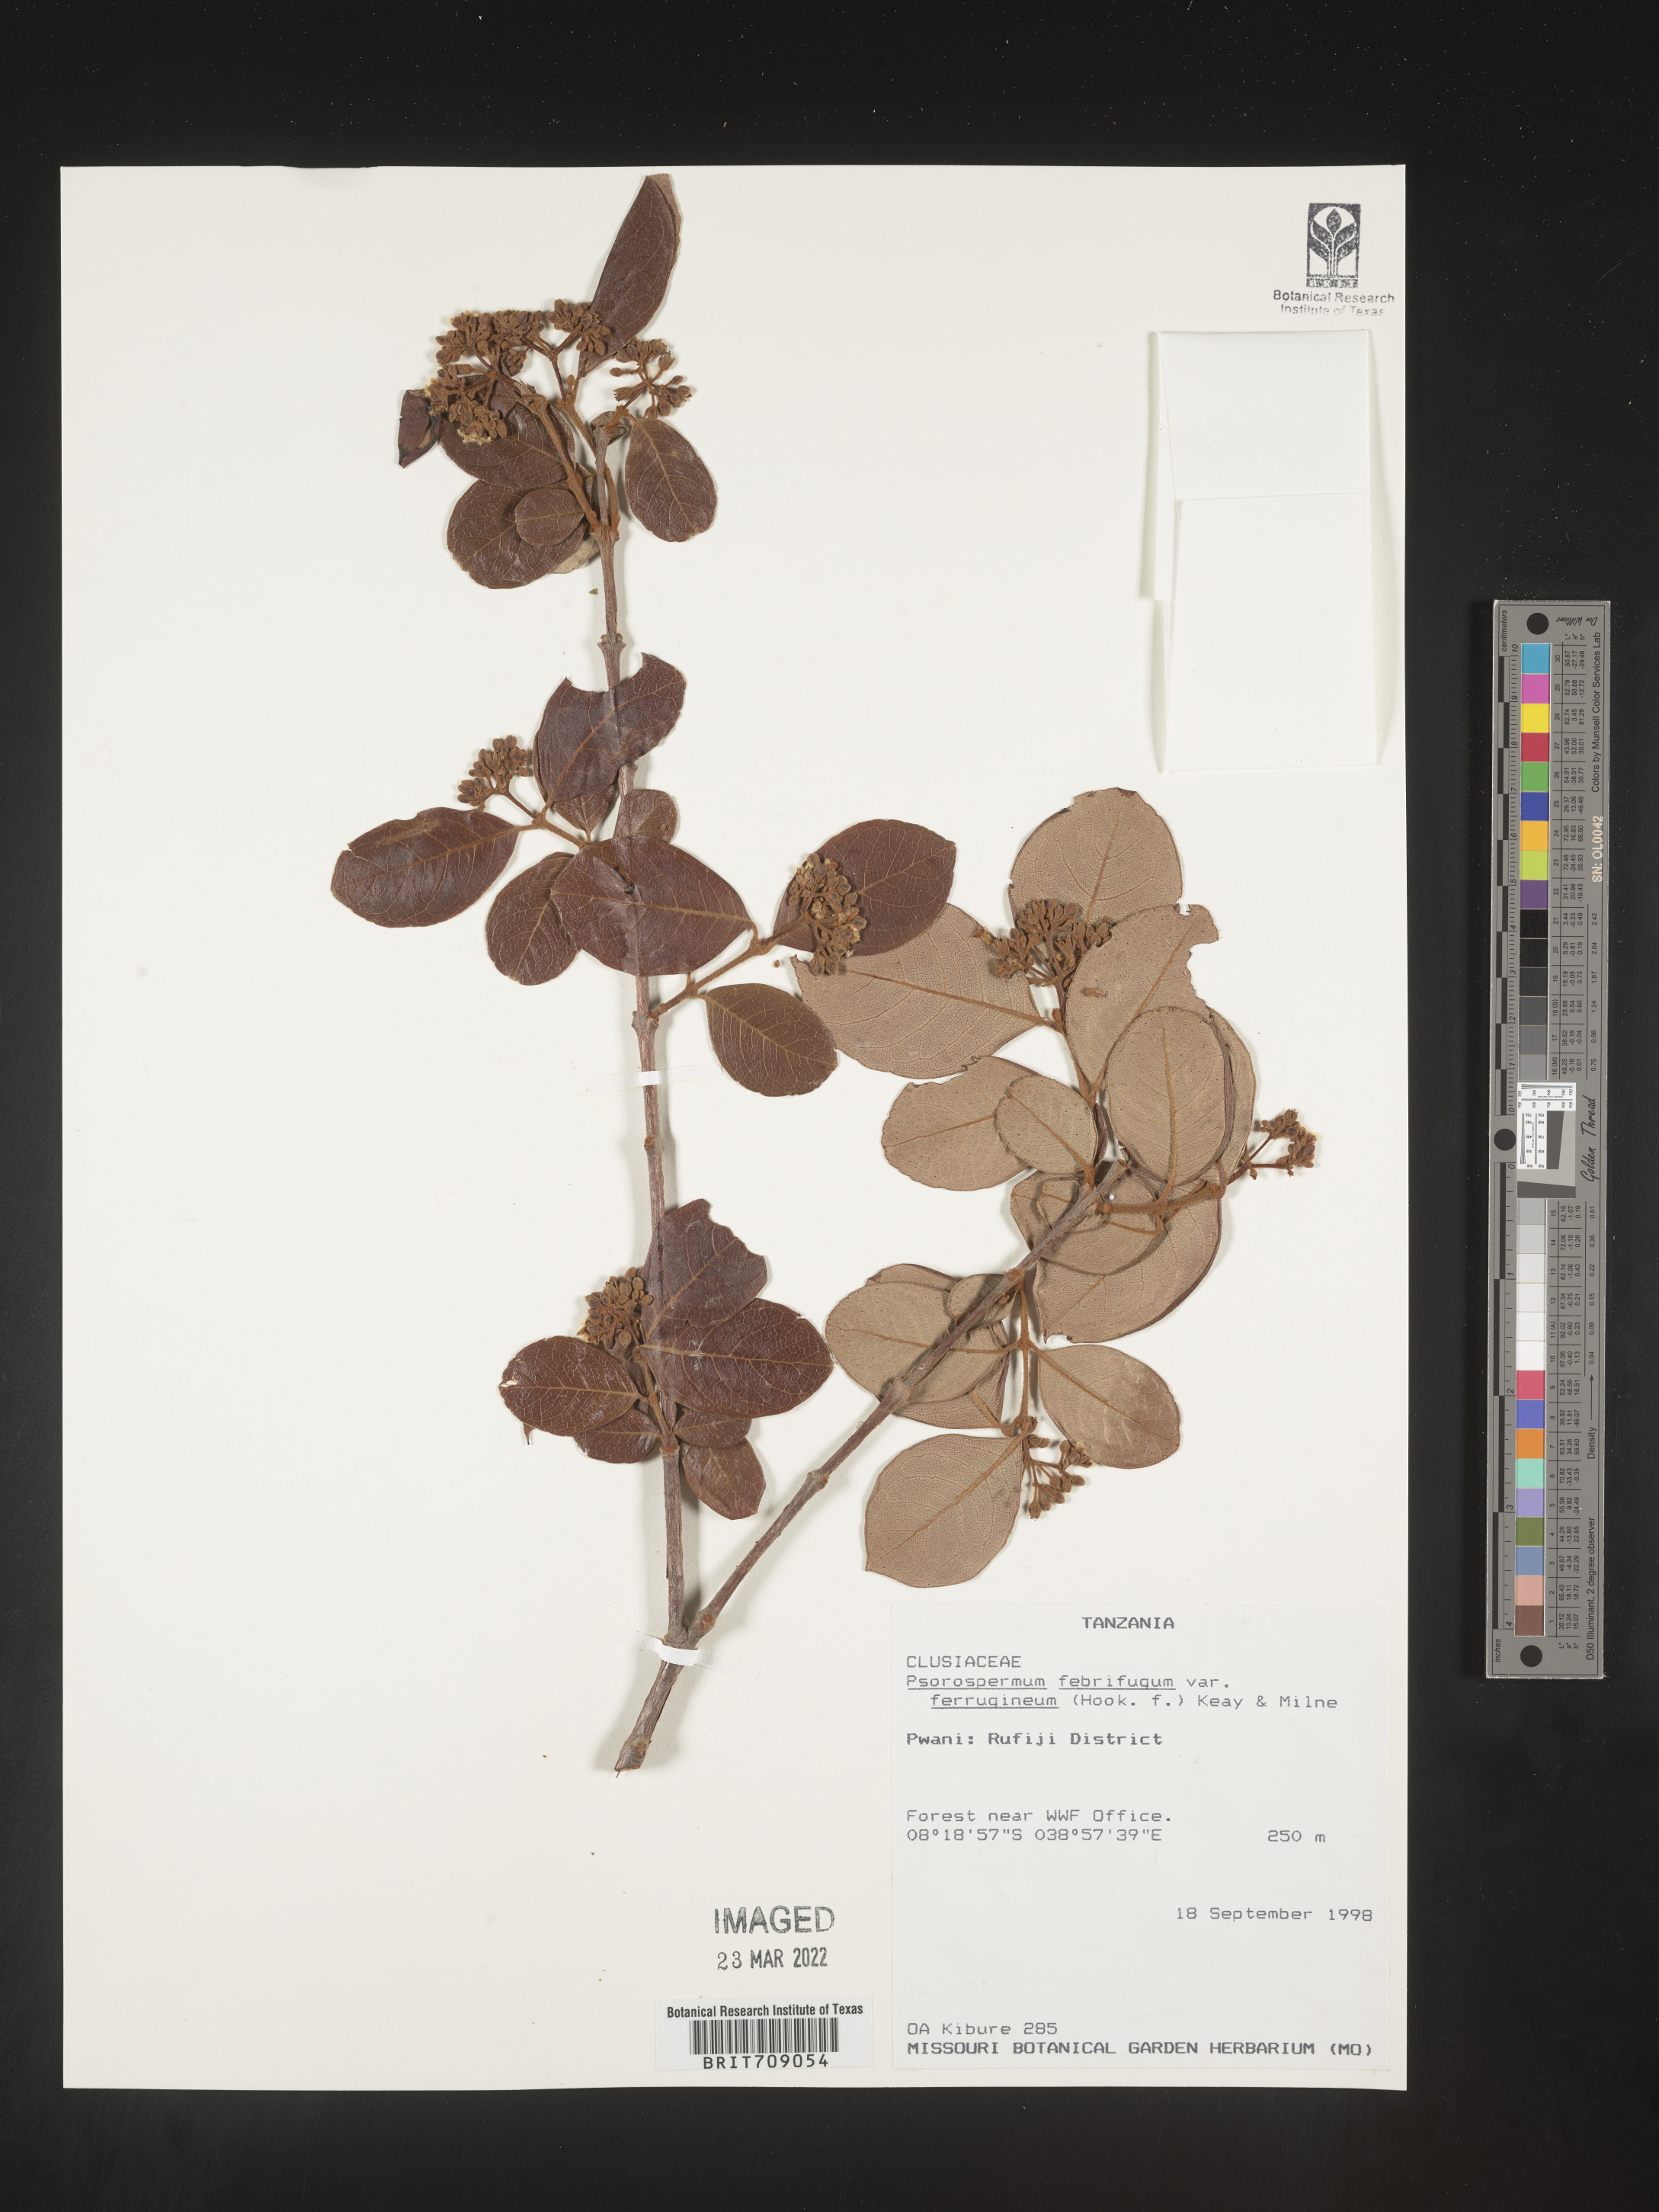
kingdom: Plantae
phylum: Tracheophyta
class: Magnoliopsida
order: Malpighiales
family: Hypericaceae
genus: Psorospermum
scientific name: Psorospermum
